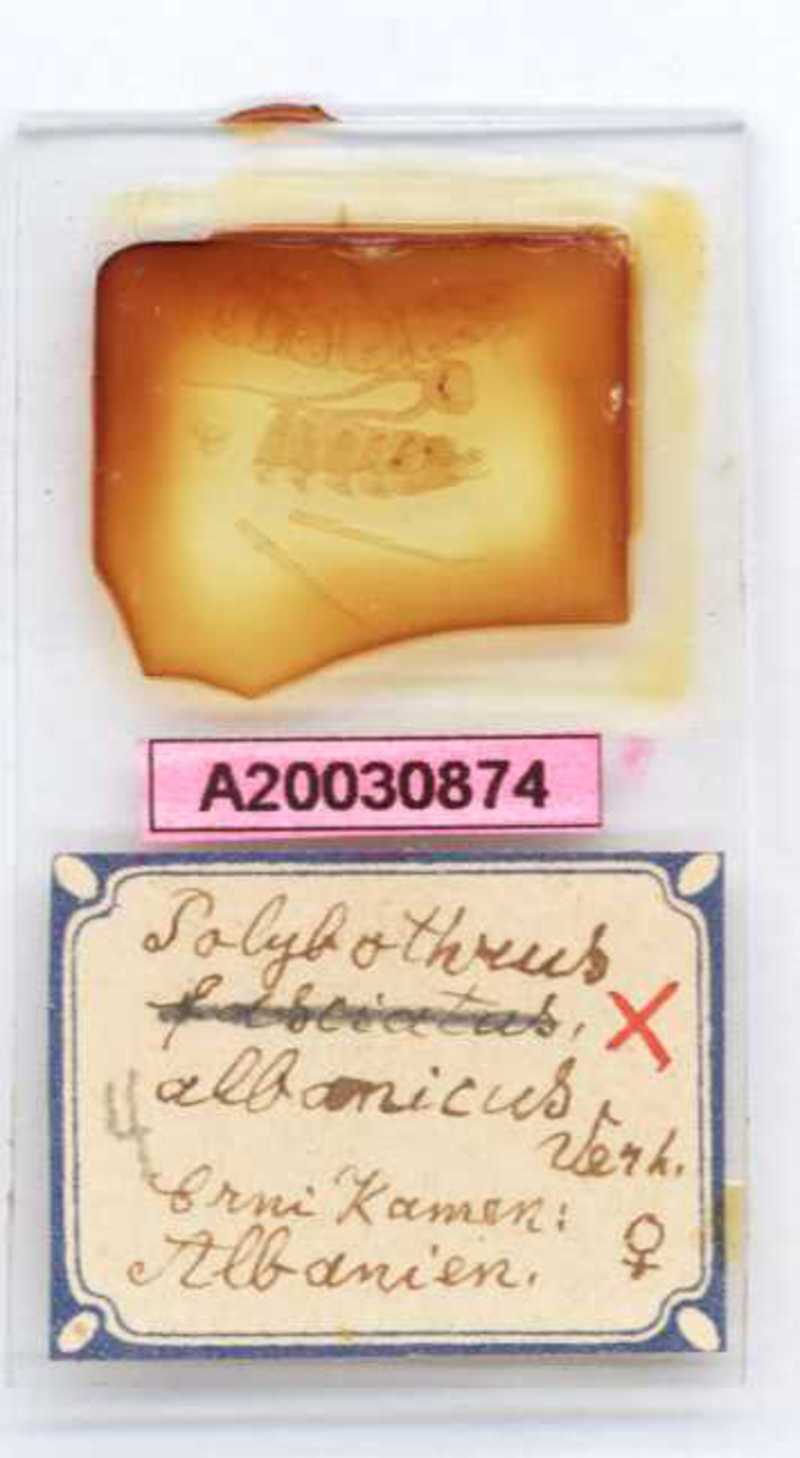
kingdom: Animalia
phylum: Arthropoda
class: Chilopoda
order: Lithobiomorpha
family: Lithobiidae
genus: Eupolybothrus
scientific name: Eupolybothrus litoralis
